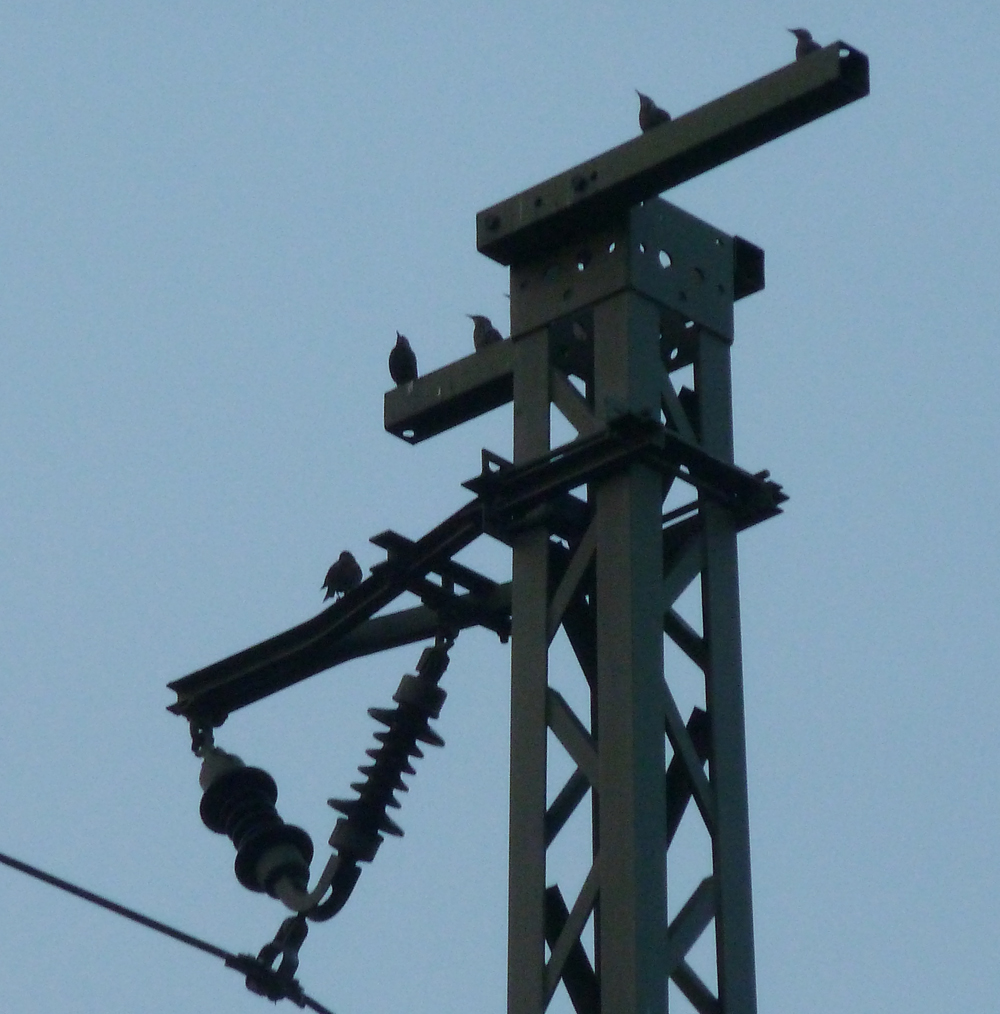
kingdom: Animalia
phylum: Chordata
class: Aves
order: Passeriformes
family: Sturnidae
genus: Sturnus
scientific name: Sturnus vulgaris
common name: Common starling
